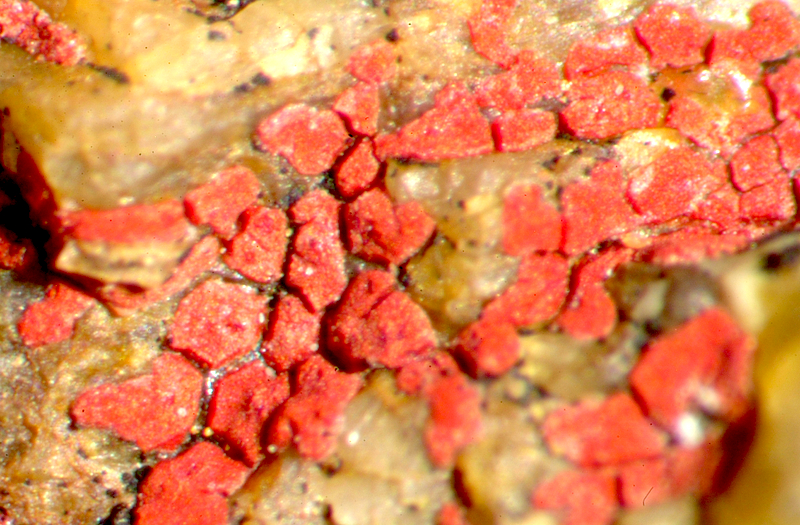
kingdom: Fungi
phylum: Ascomycota
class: Lecanoromycetes
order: Teloschistales
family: Teloschistaceae
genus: Neobrownliella
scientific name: Neobrownliella cinnabarina
